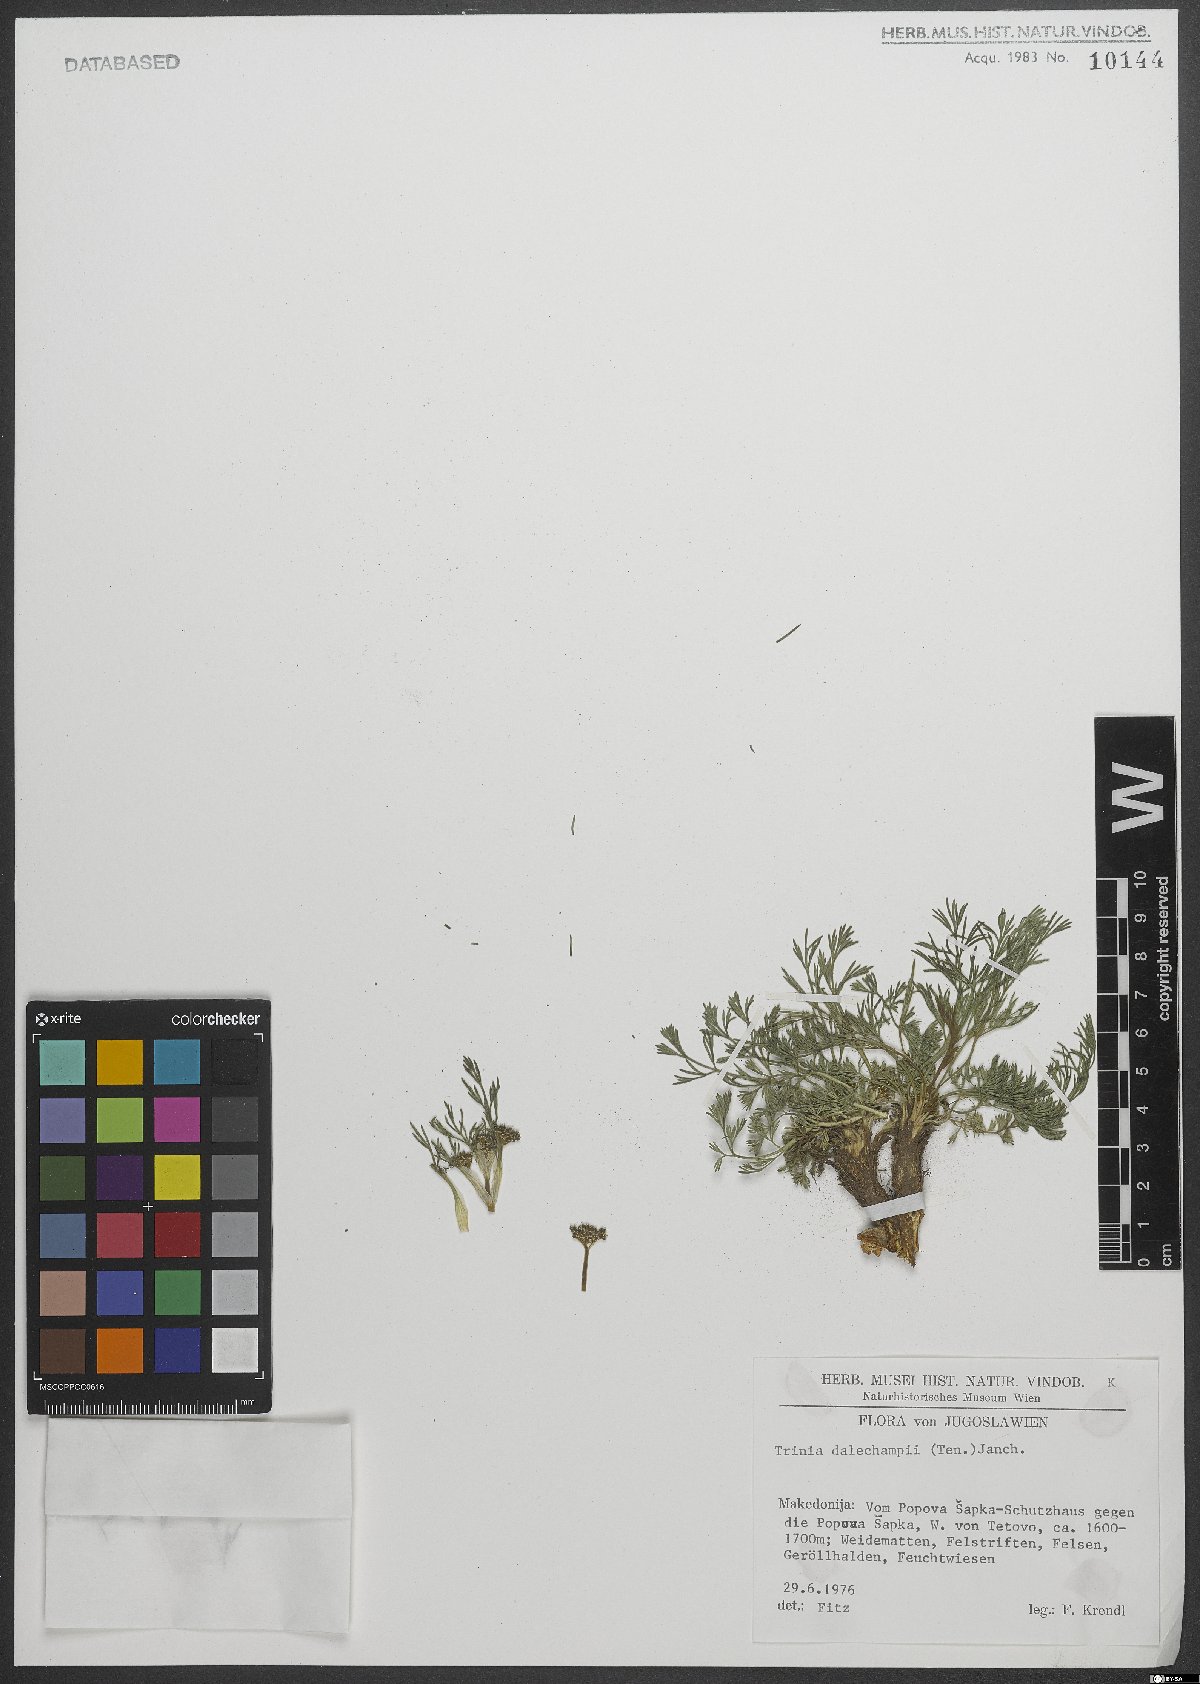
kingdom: Plantae
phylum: Tracheophyta
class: Magnoliopsida
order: Apiales
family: Apiaceae
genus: Trinia
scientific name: Trinia dalechampii
